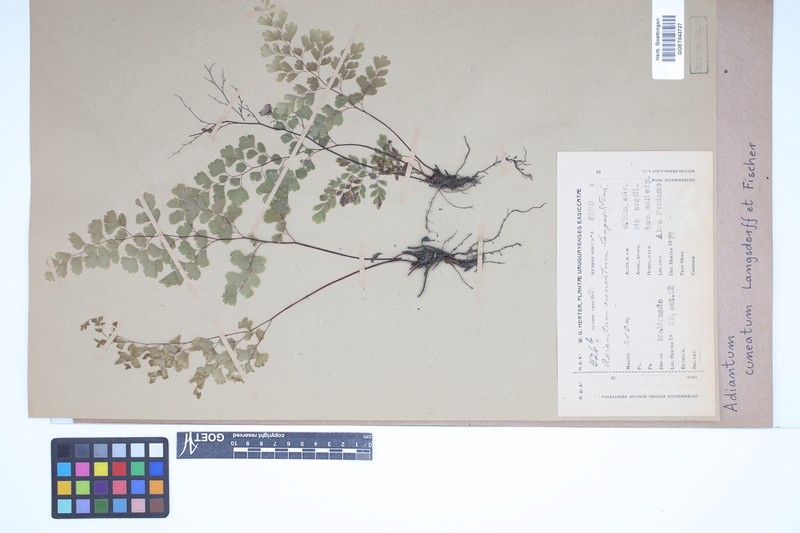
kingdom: Plantae
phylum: Tracheophyta
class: Polypodiopsida
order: Polypodiales
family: Pteridaceae
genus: Adiantum
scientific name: Adiantum raddianum
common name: Delta maidenhair fern
